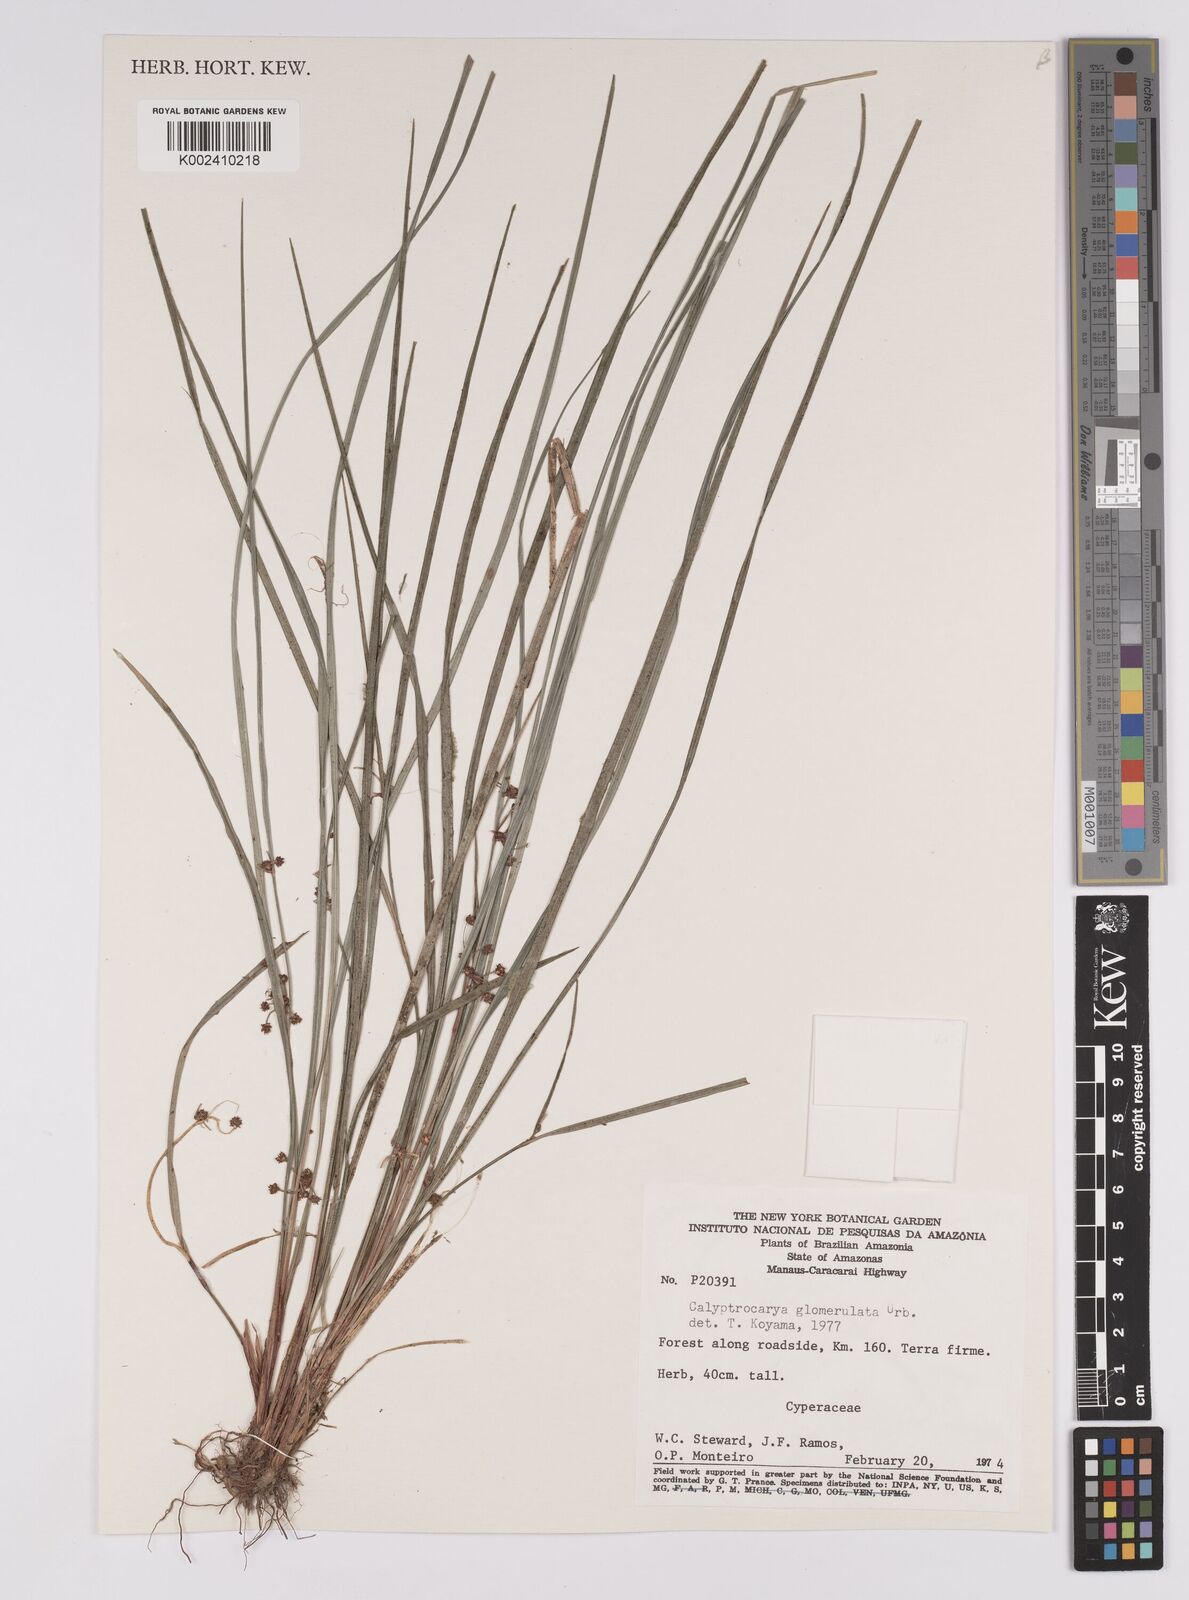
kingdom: Plantae
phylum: Tracheophyta
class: Liliopsida
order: Poales
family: Cyperaceae
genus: Calyptrocarya
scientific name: Calyptrocarya glomerulata
